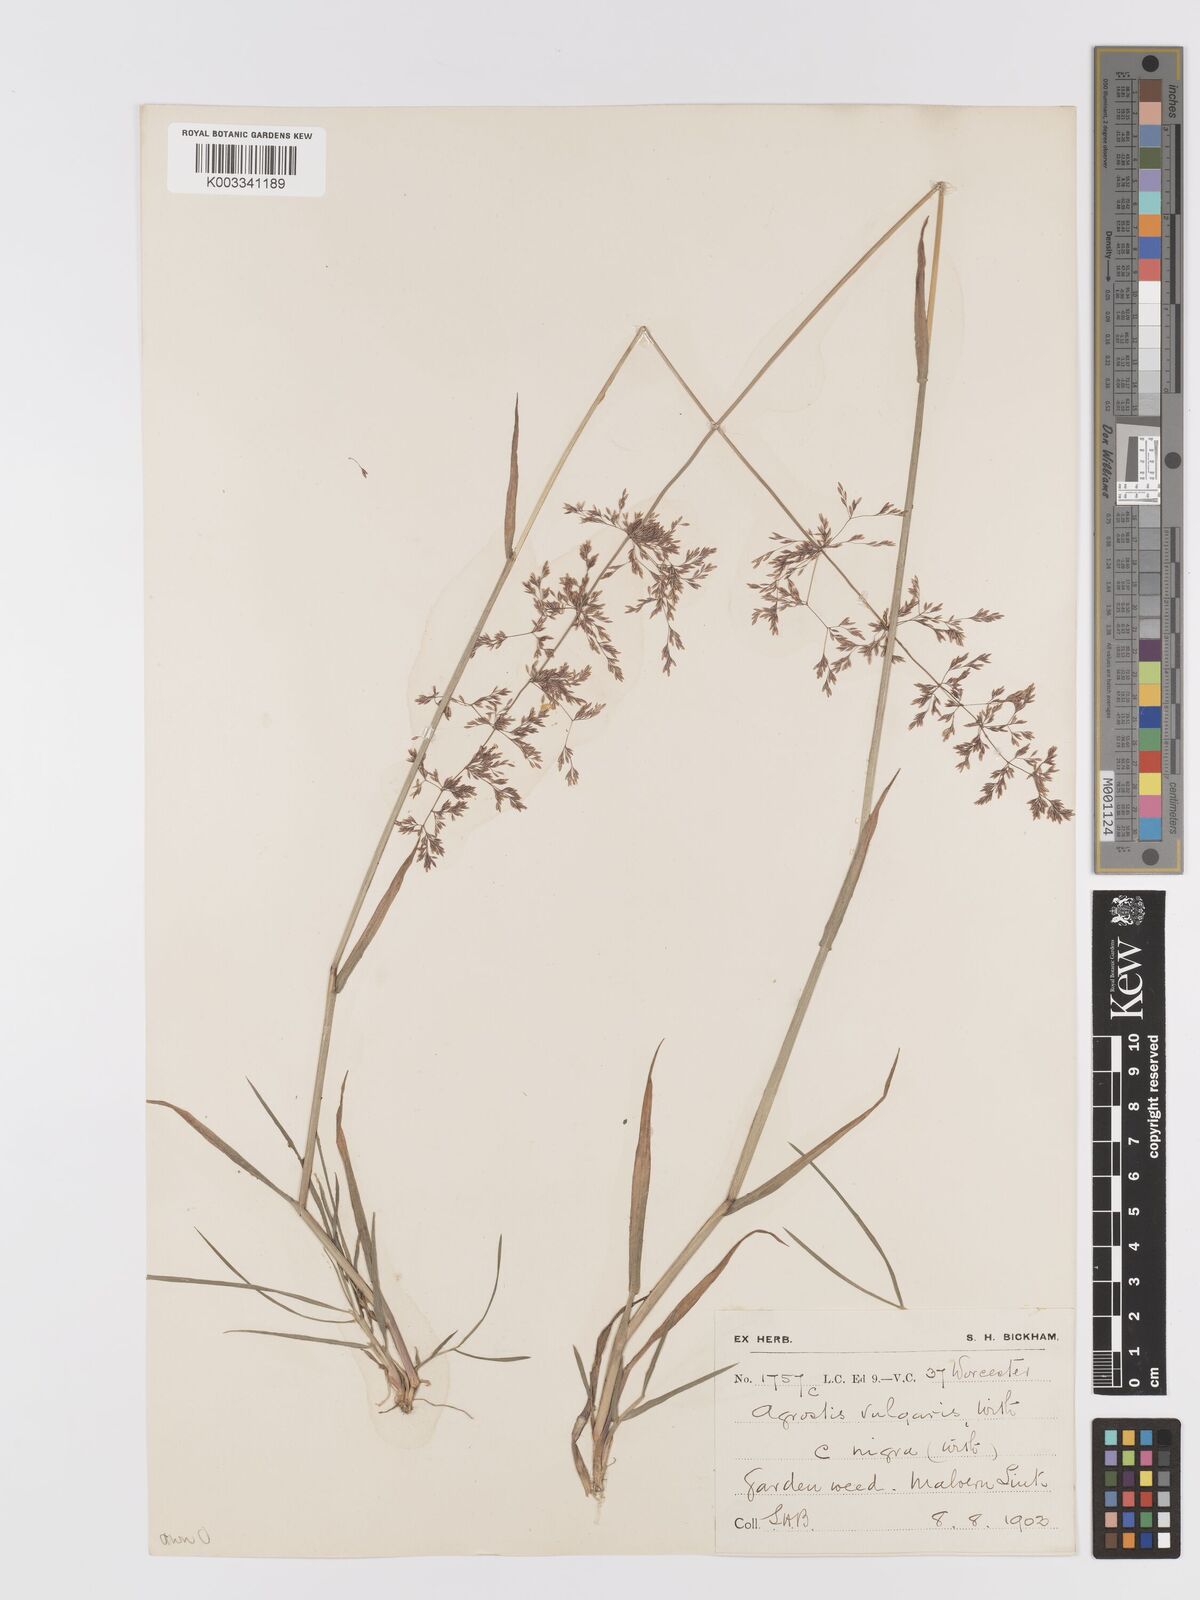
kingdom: Plantae
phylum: Tracheophyta
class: Liliopsida
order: Poales
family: Poaceae
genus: Agrostis
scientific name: Agrostis gigantea
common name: Black bent
